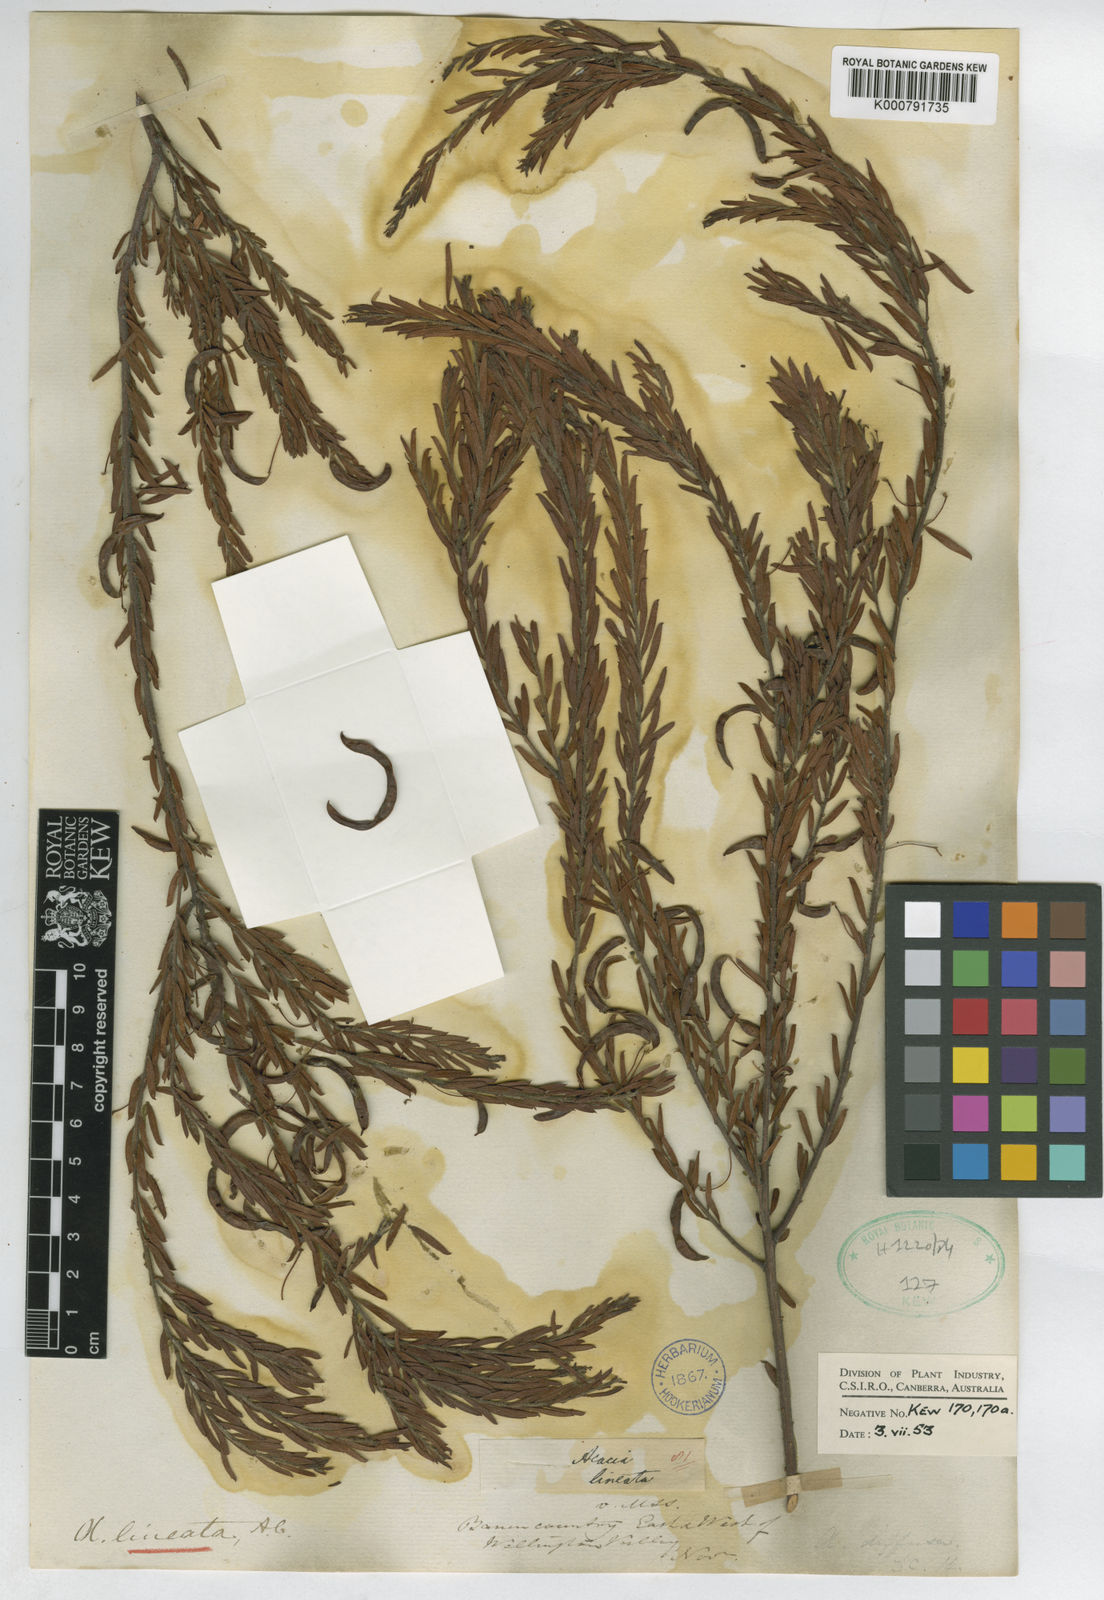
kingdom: Plantae
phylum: Tracheophyta
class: Magnoliopsida
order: Fabales
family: Fabaceae
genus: Acacia
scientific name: Acacia lineata
